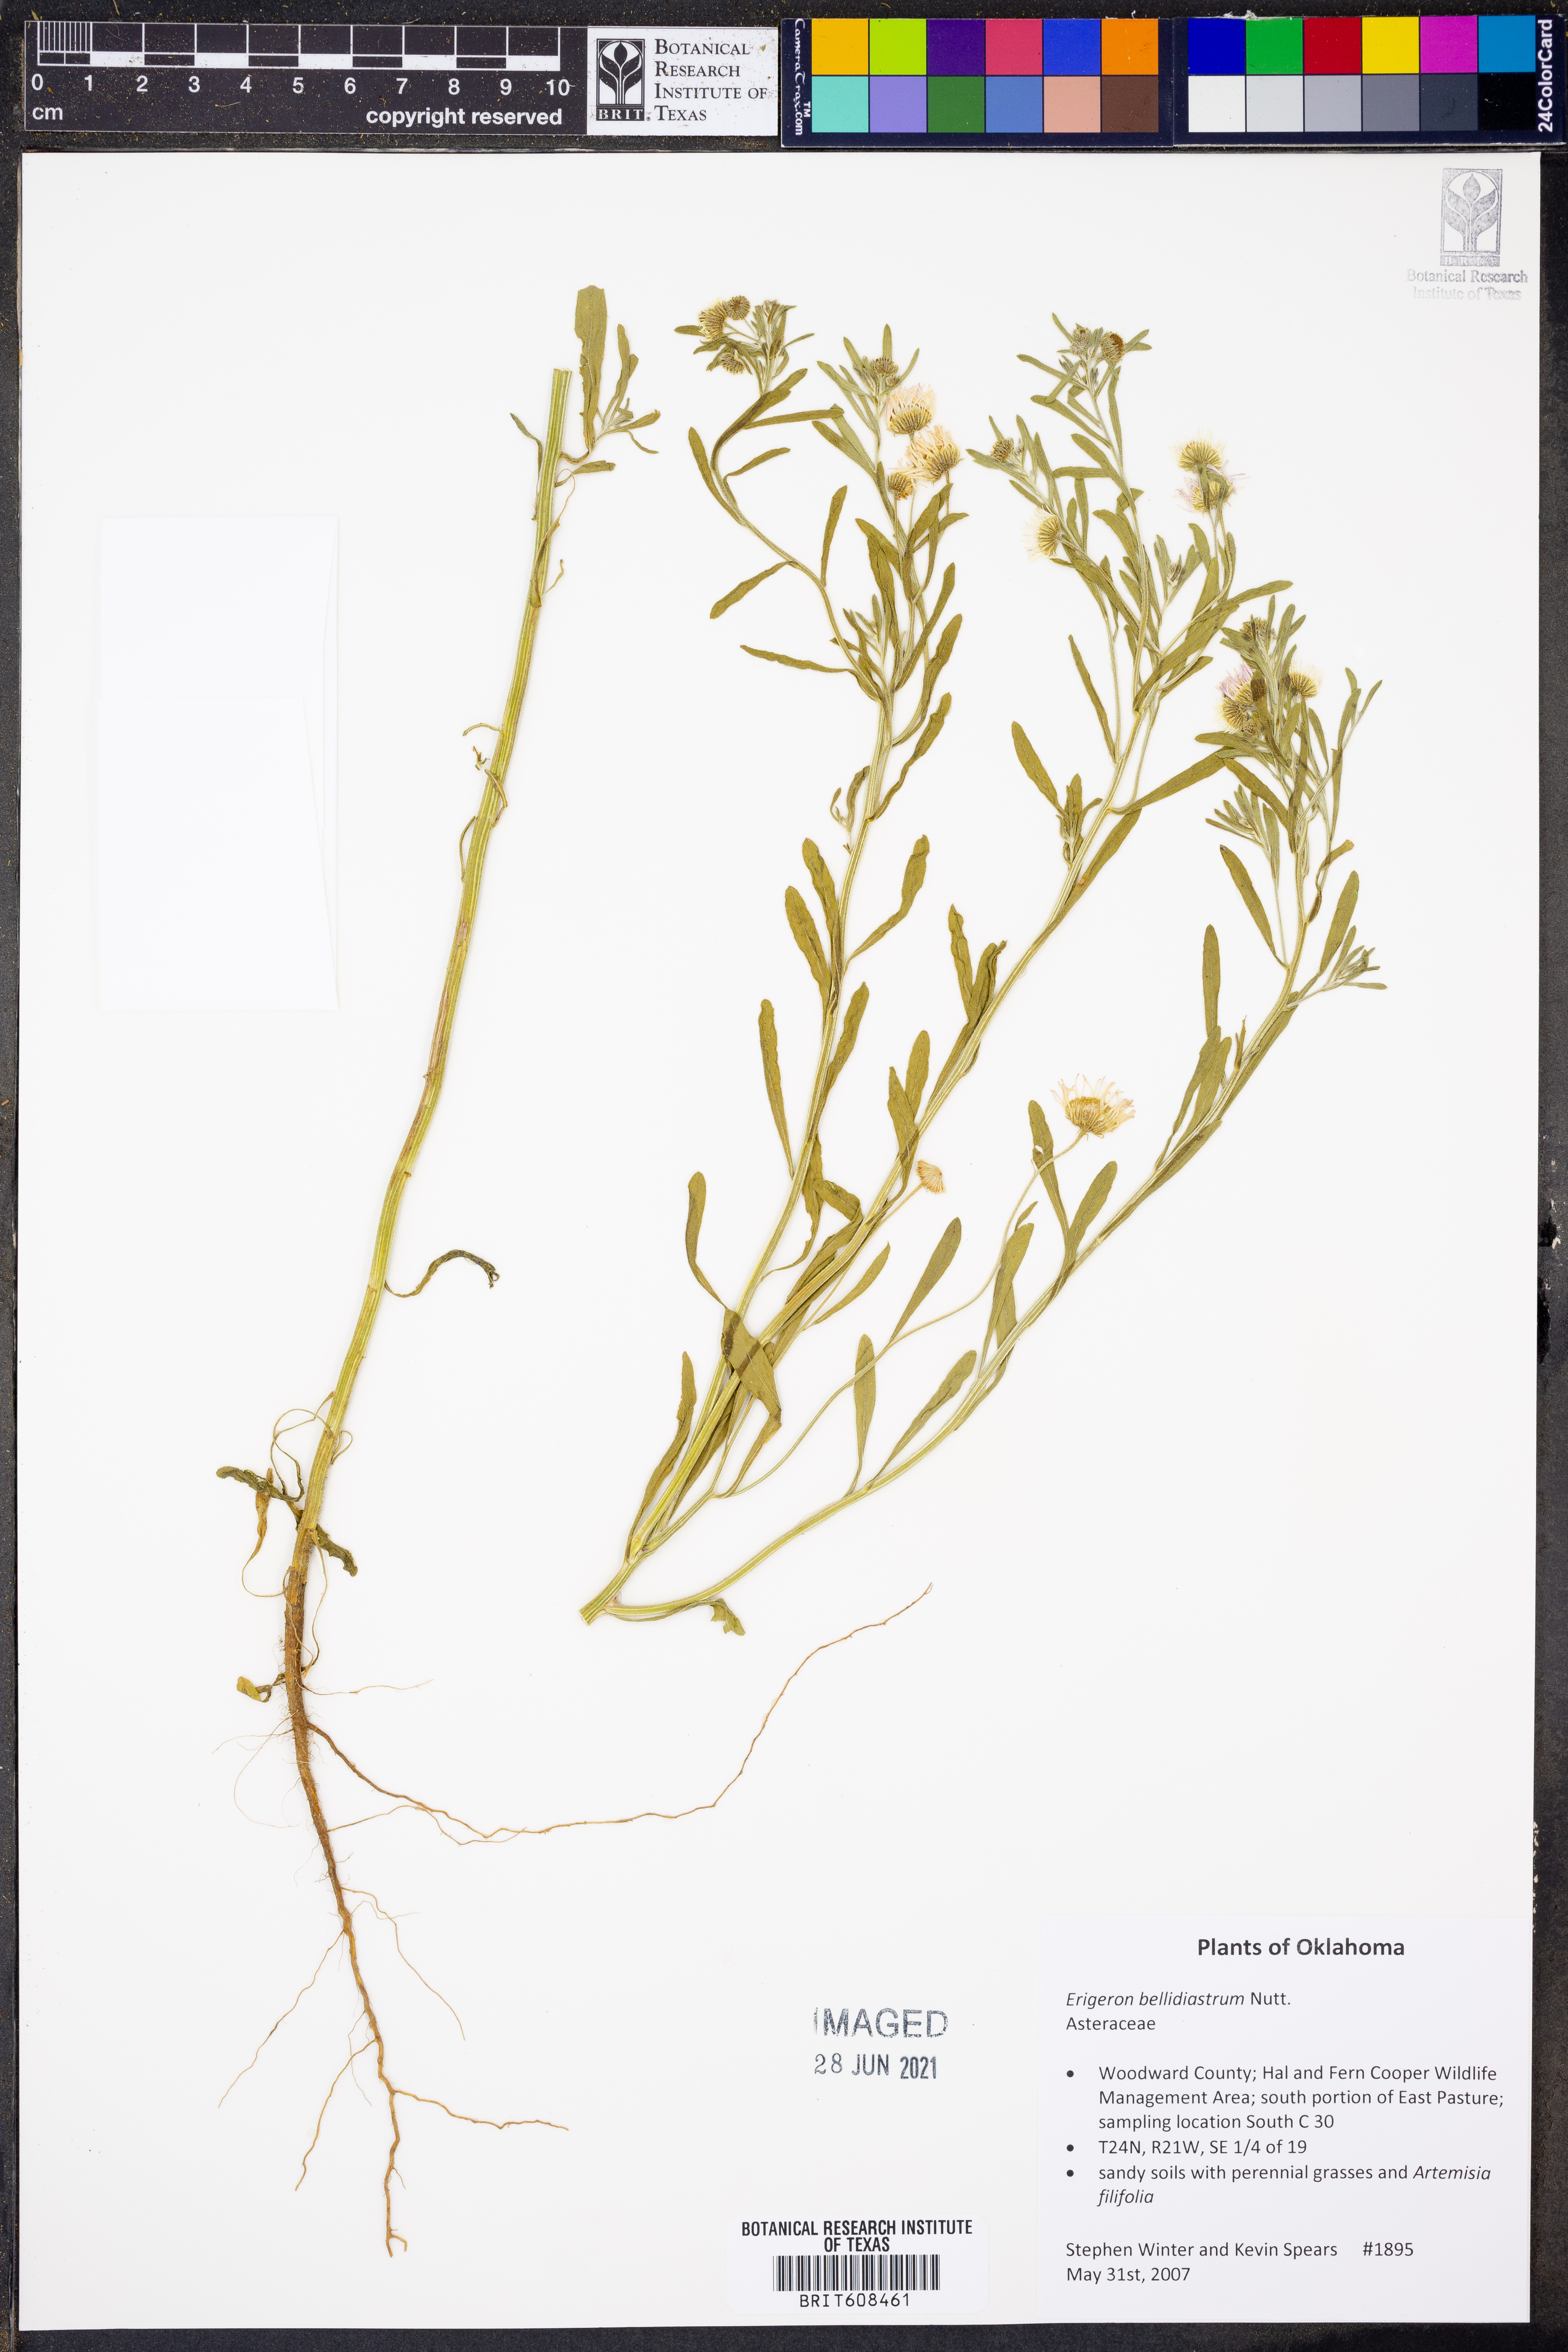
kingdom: Plantae
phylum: Tracheophyta
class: Magnoliopsida
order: Asterales
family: Asteraceae
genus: Erigeron
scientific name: Erigeron bellidiastrum
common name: Sand fleabane
